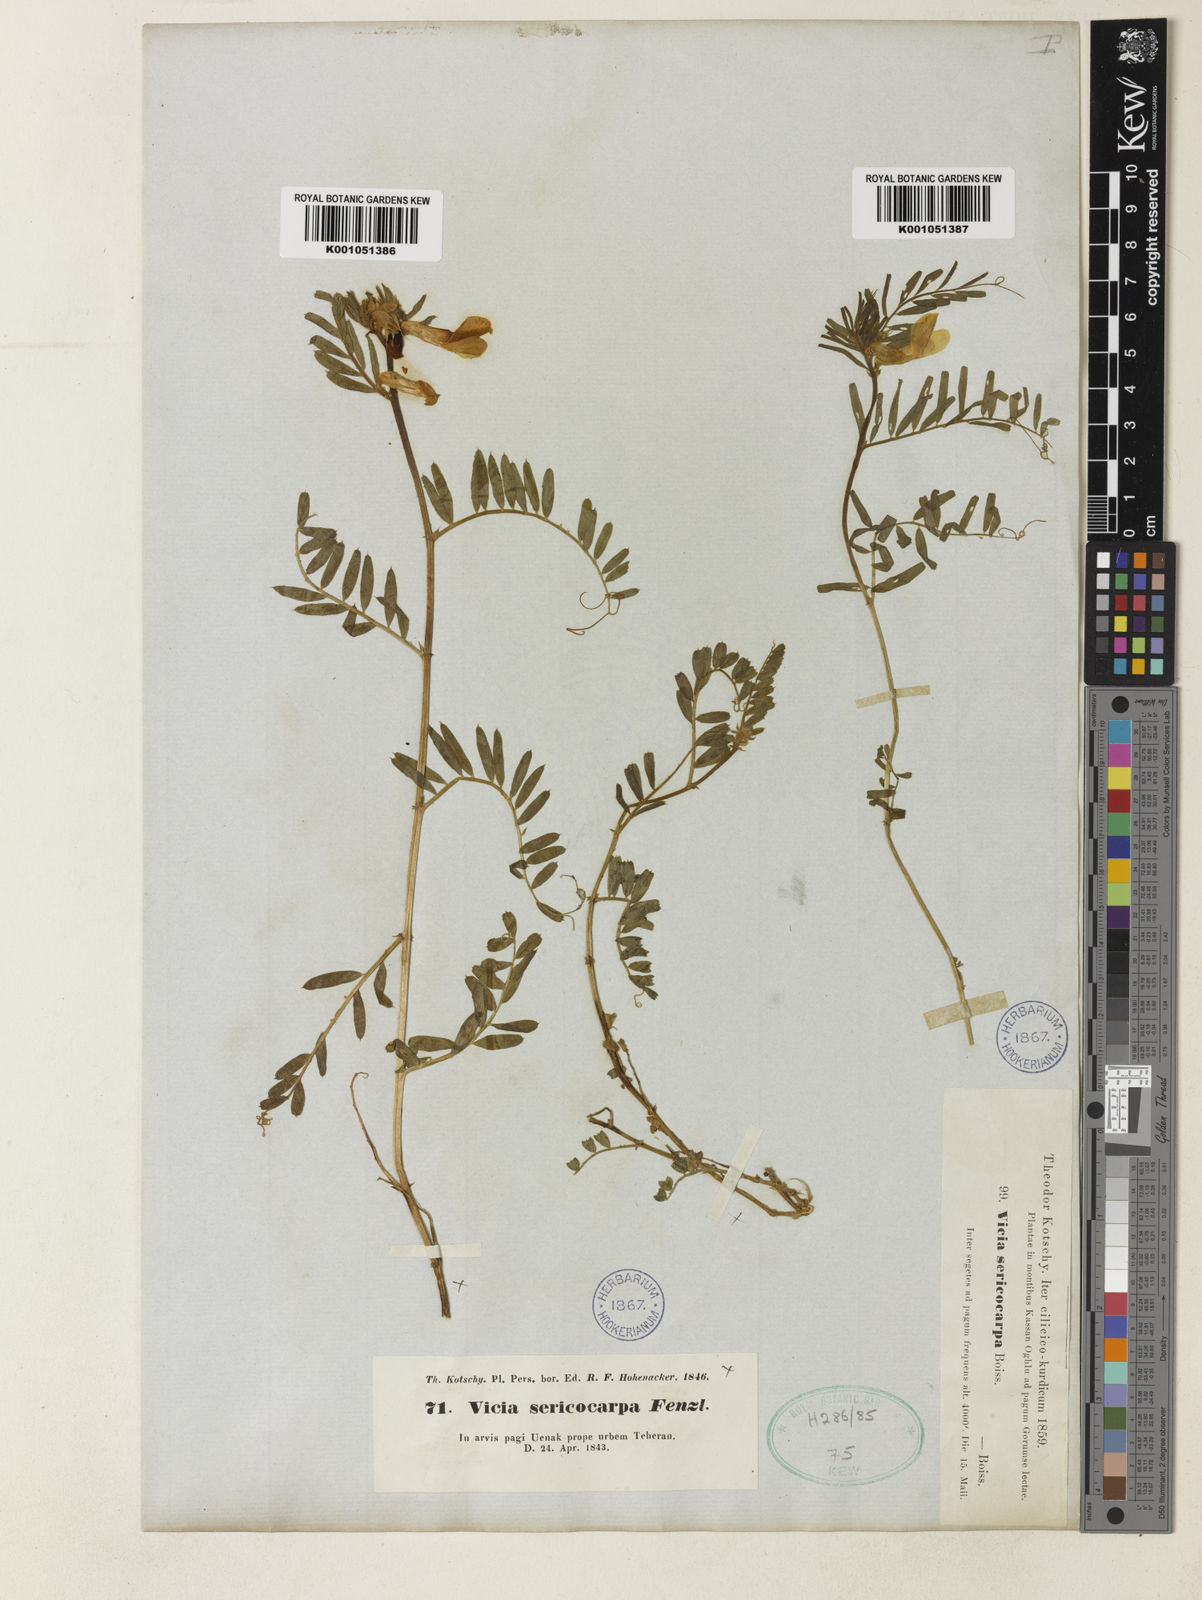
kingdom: Plantae
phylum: Tracheophyta
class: Magnoliopsida
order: Fabales
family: Fabaceae
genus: Vicia
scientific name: Vicia sericocarpa
